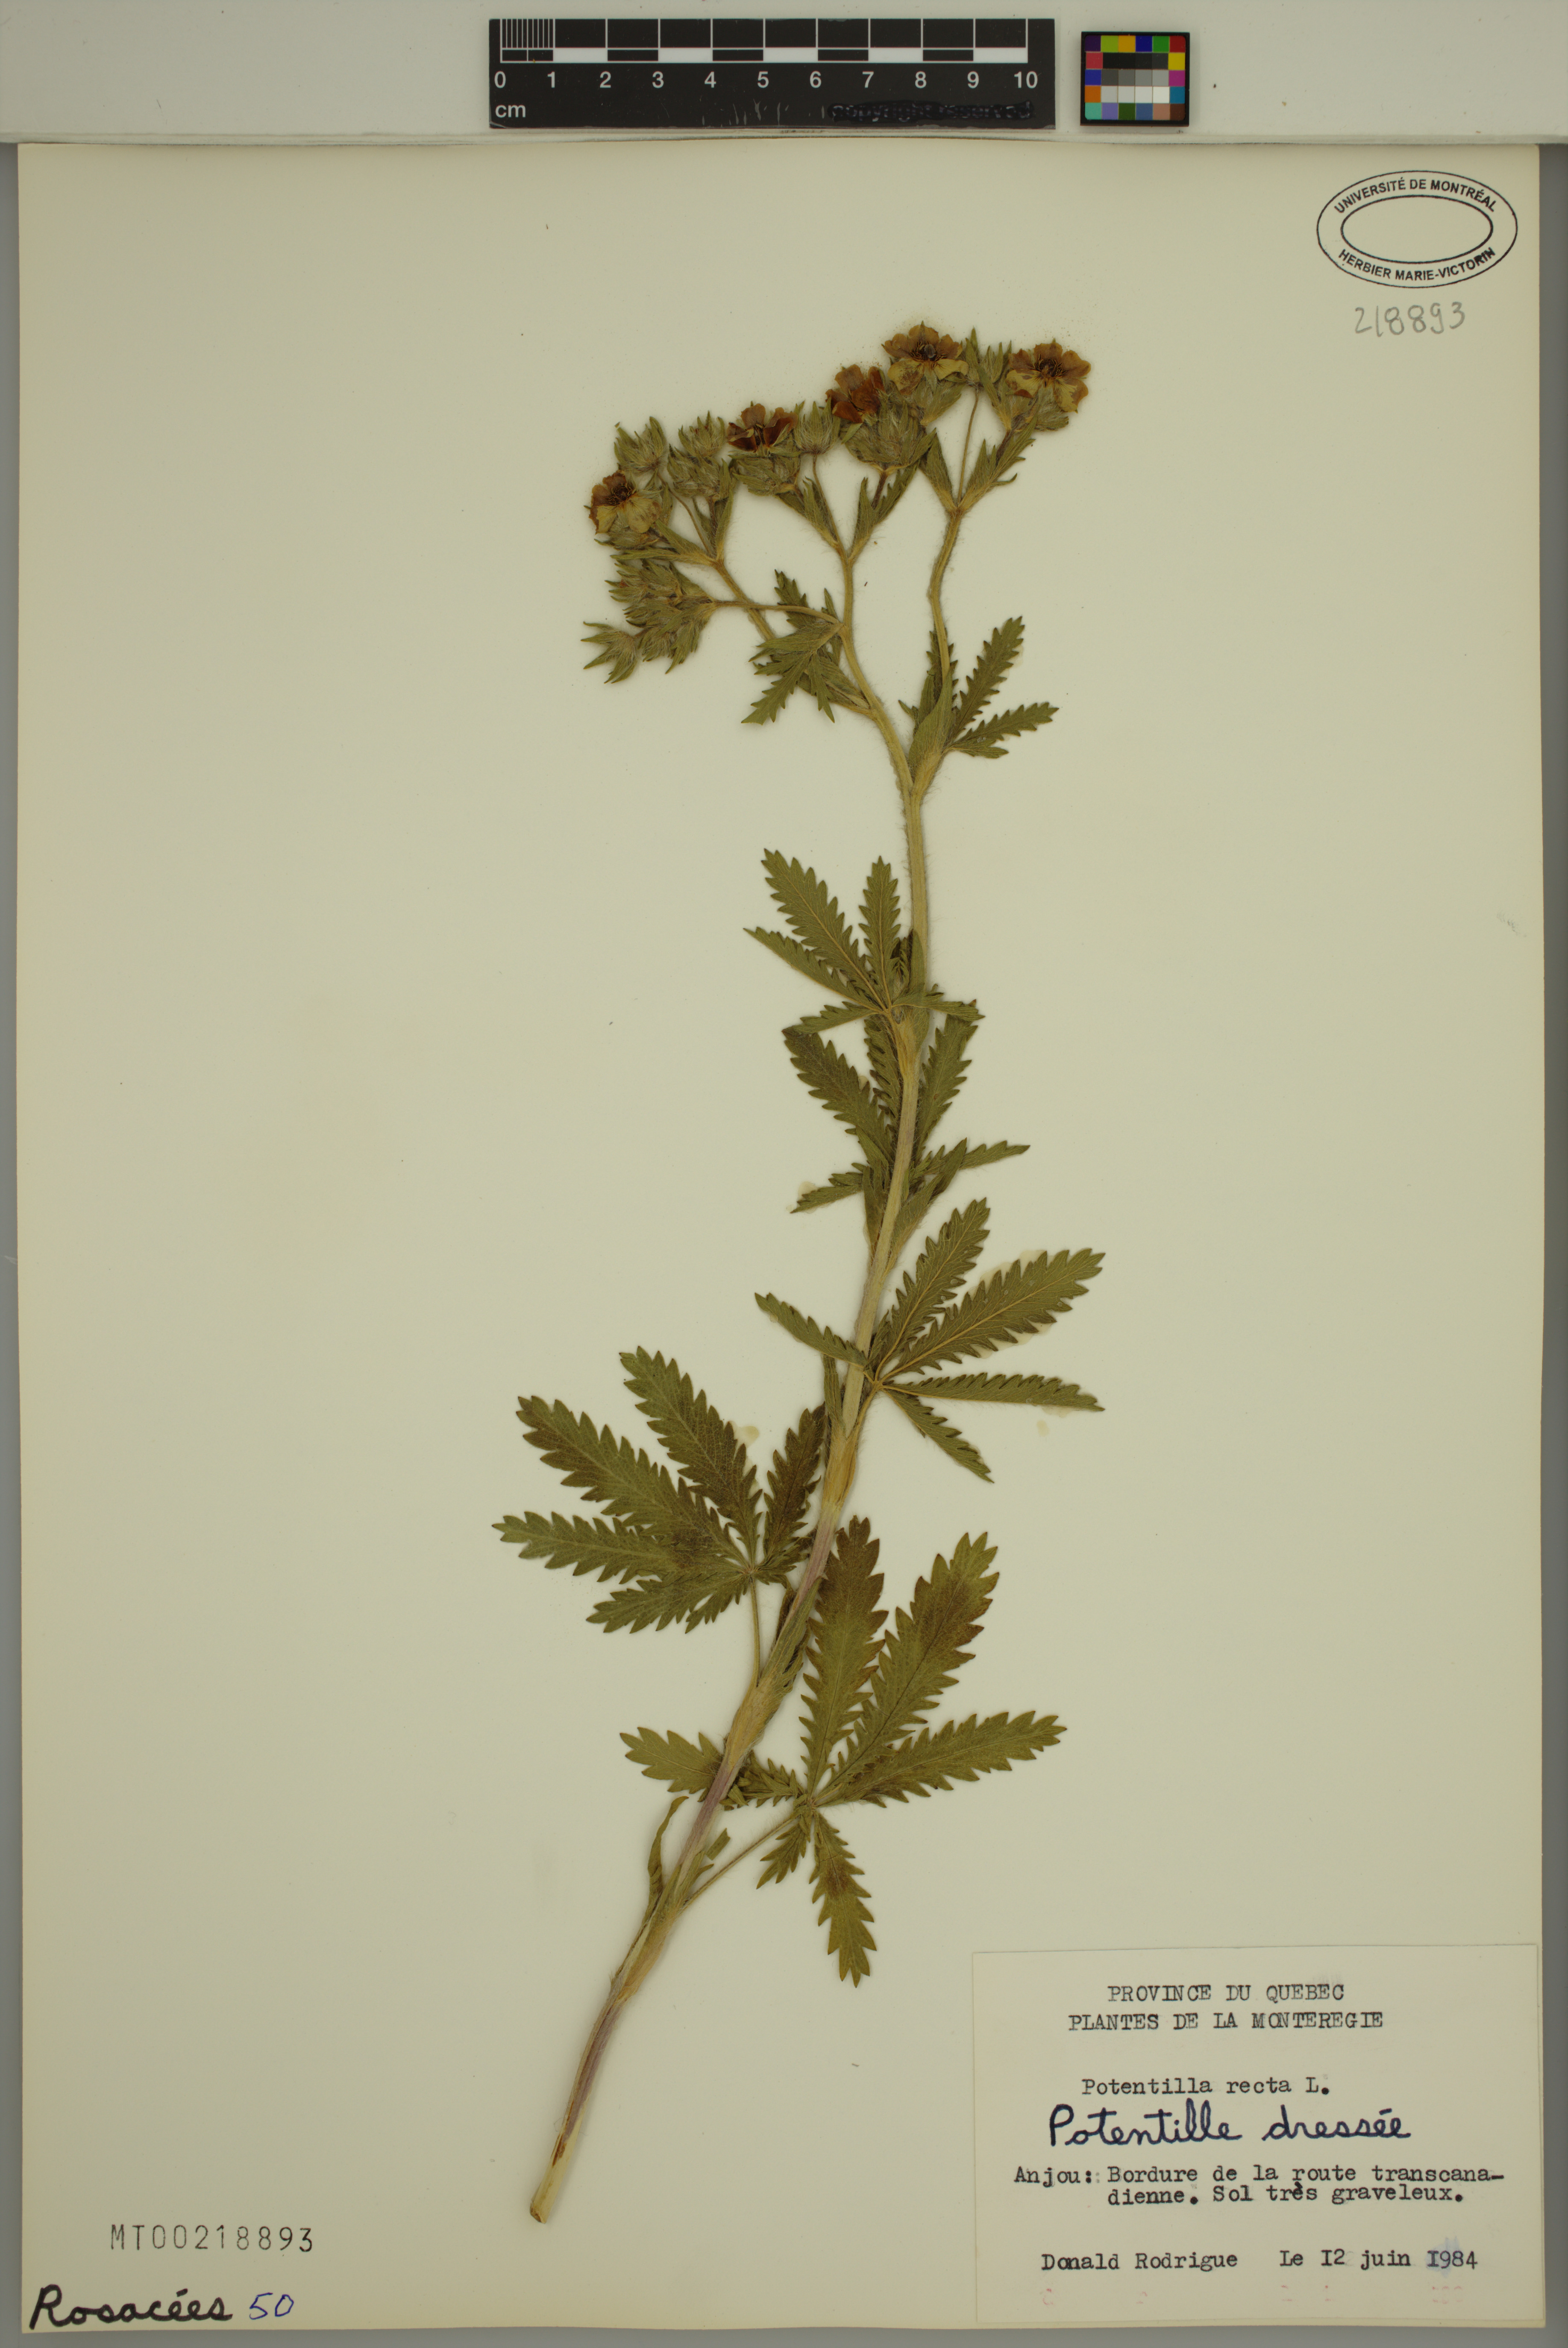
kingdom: Plantae
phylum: Tracheophyta
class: Magnoliopsida
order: Rosales
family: Rosaceae
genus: Potentilla
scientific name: Potentilla recta
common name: Sulphur cinquefoil
